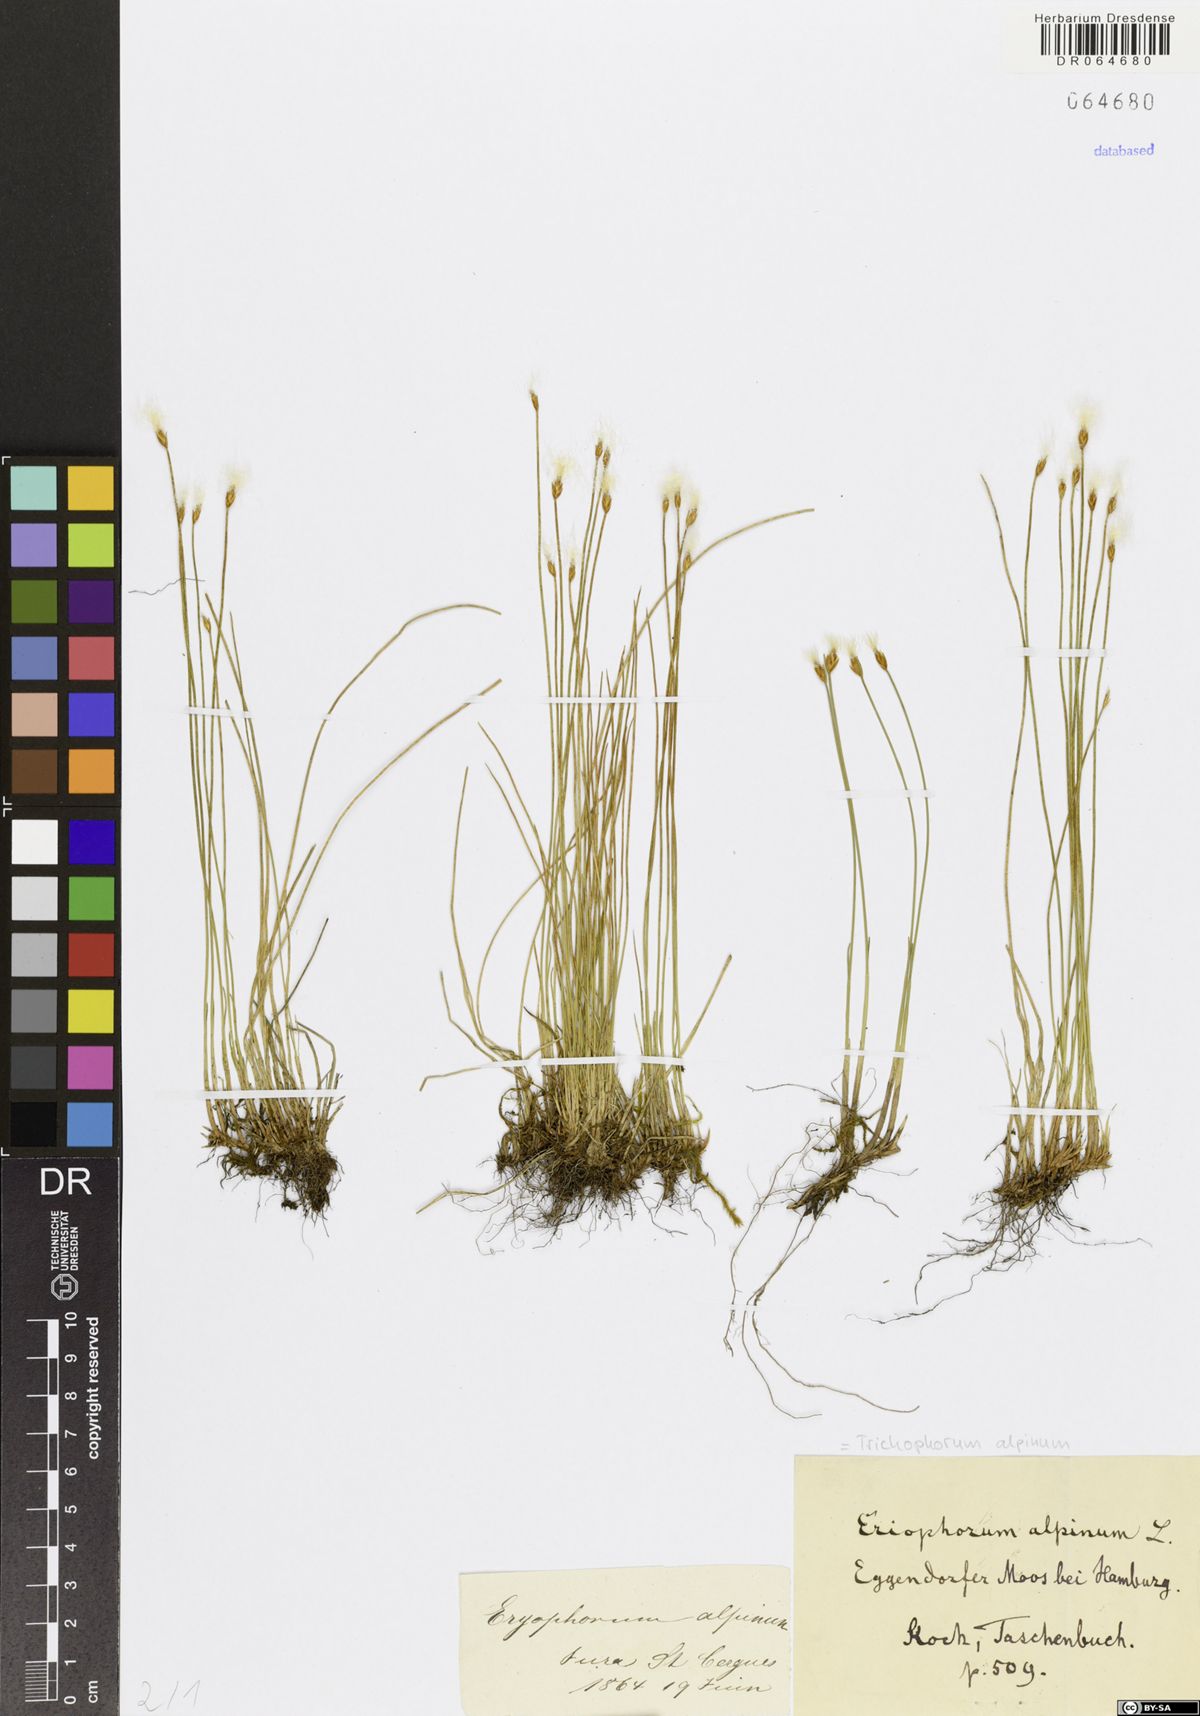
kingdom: Plantae
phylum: Tracheophyta
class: Liliopsida
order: Poales
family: Cyperaceae
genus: Trichophorum
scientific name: Trichophorum alpinum
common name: Alpine bulrush
